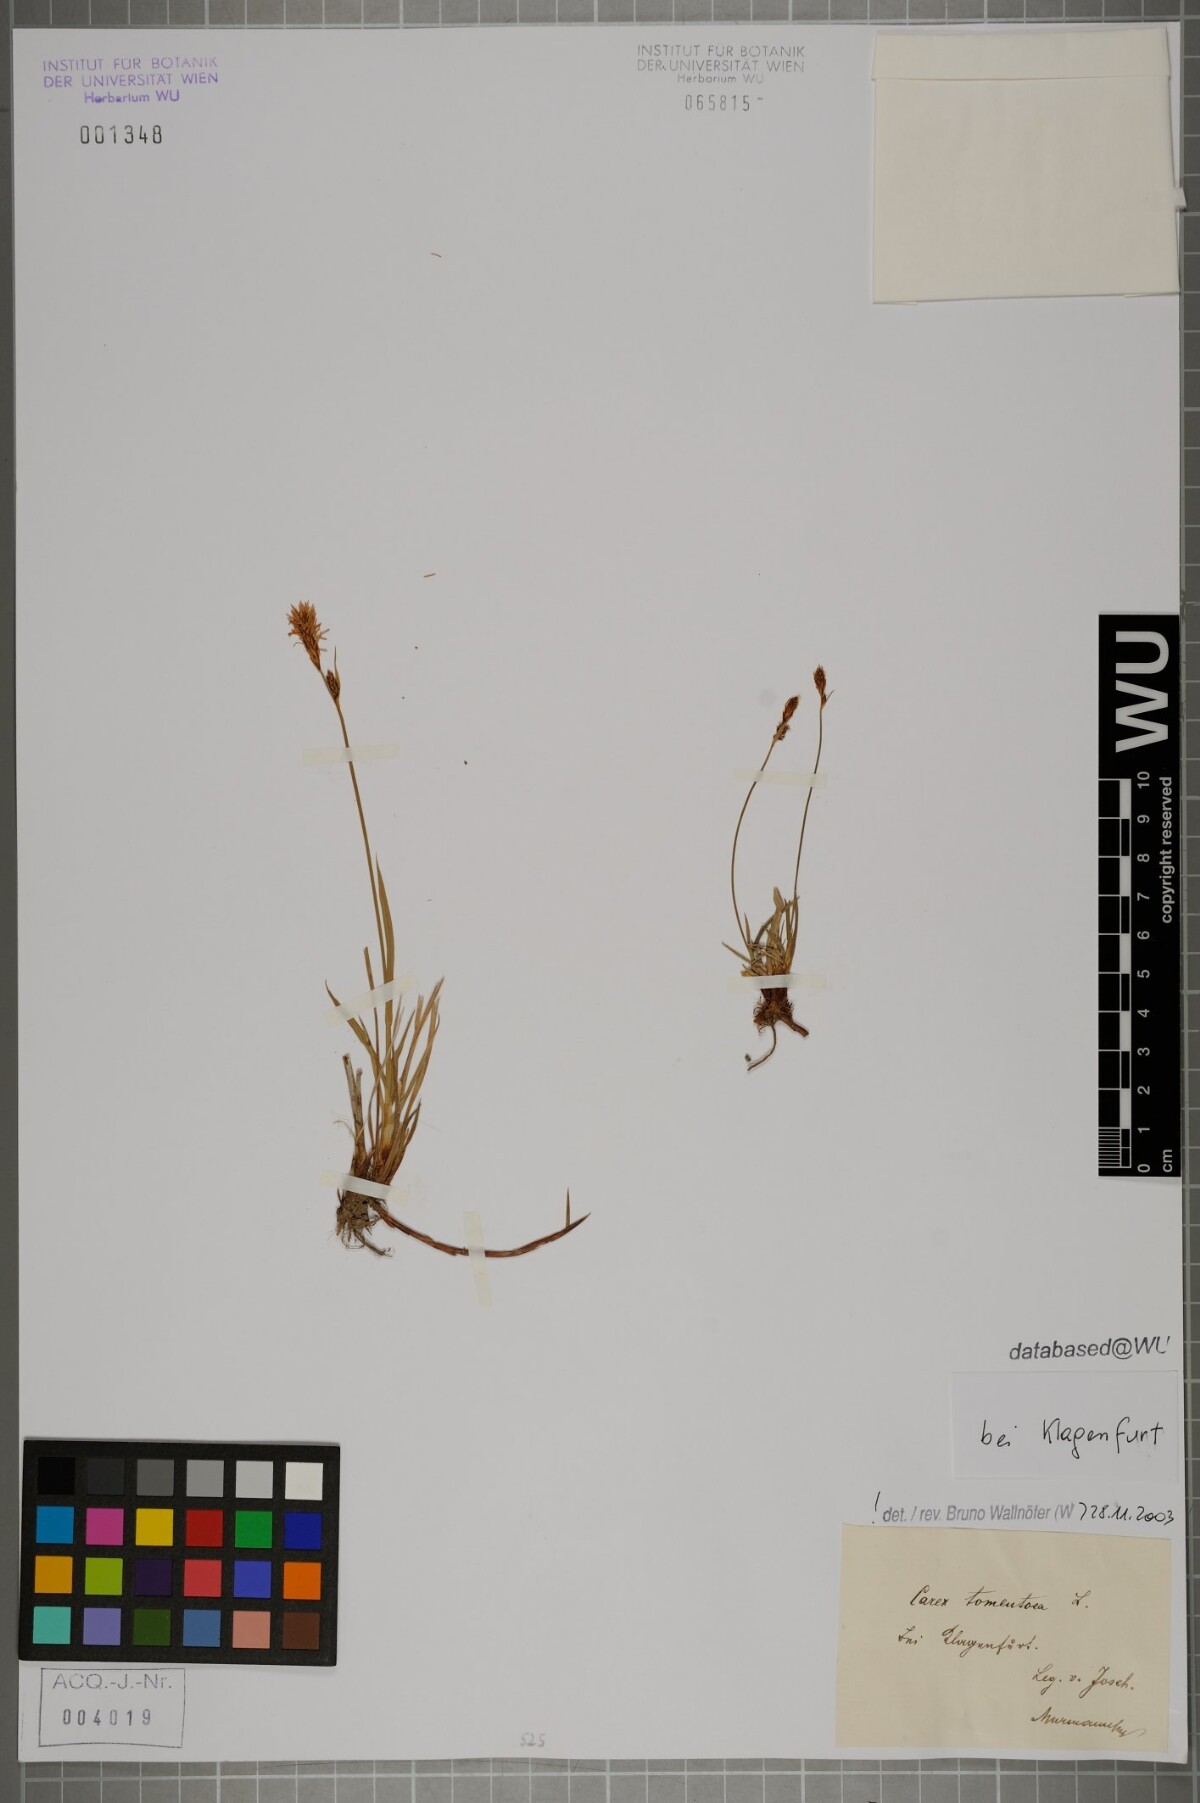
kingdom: Plantae
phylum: Tracheophyta
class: Liliopsida
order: Poales
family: Cyperaceae
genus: Carex
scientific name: Carex tomentosa
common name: Downy-fruited sedge
